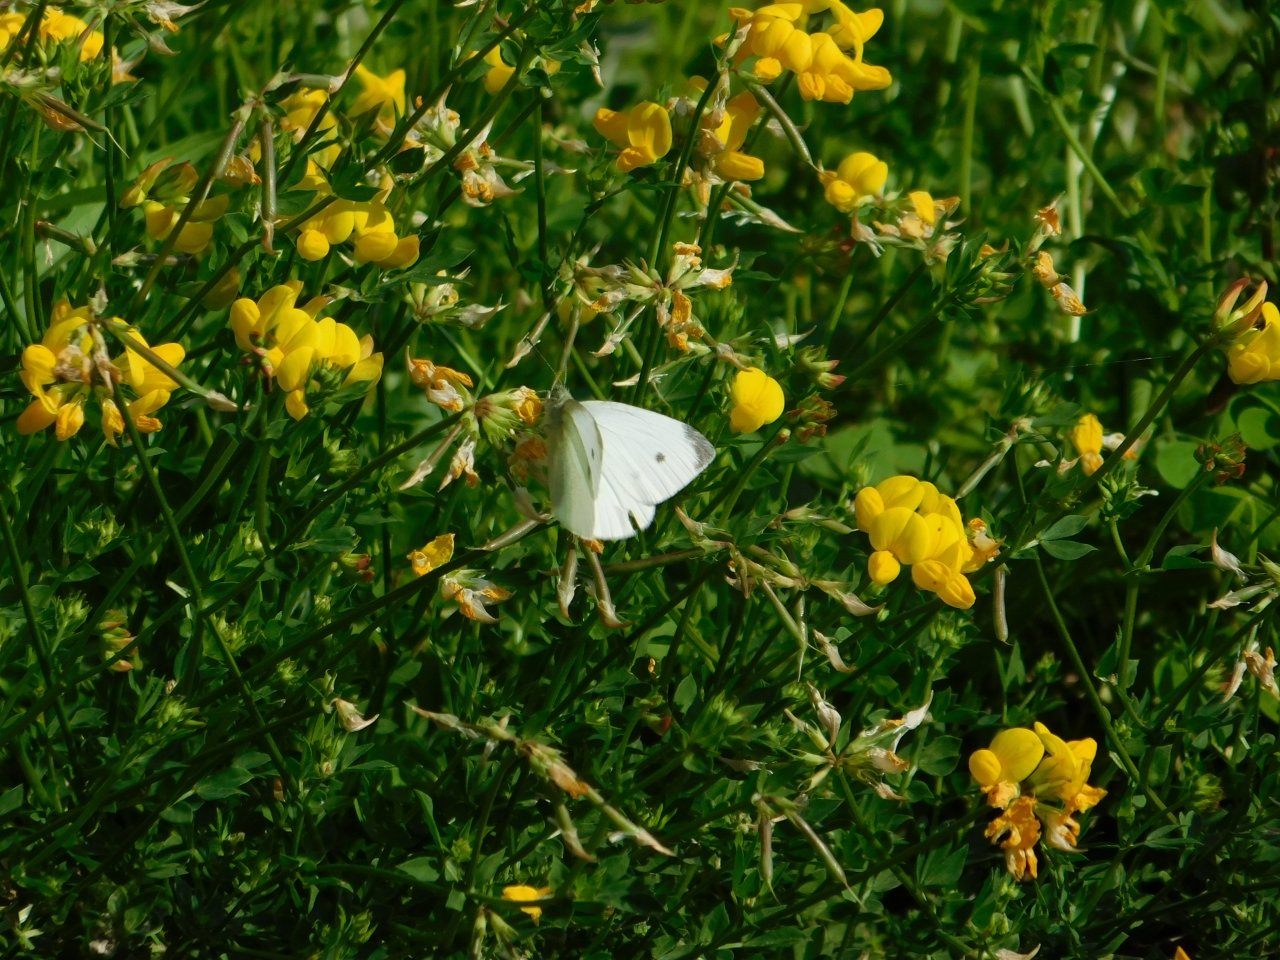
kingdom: Animalia
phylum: Arthropoda
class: Insecta
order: Lepidoptera
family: Pieridae
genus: Pieris
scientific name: Pieris rapae
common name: Cabbage White
